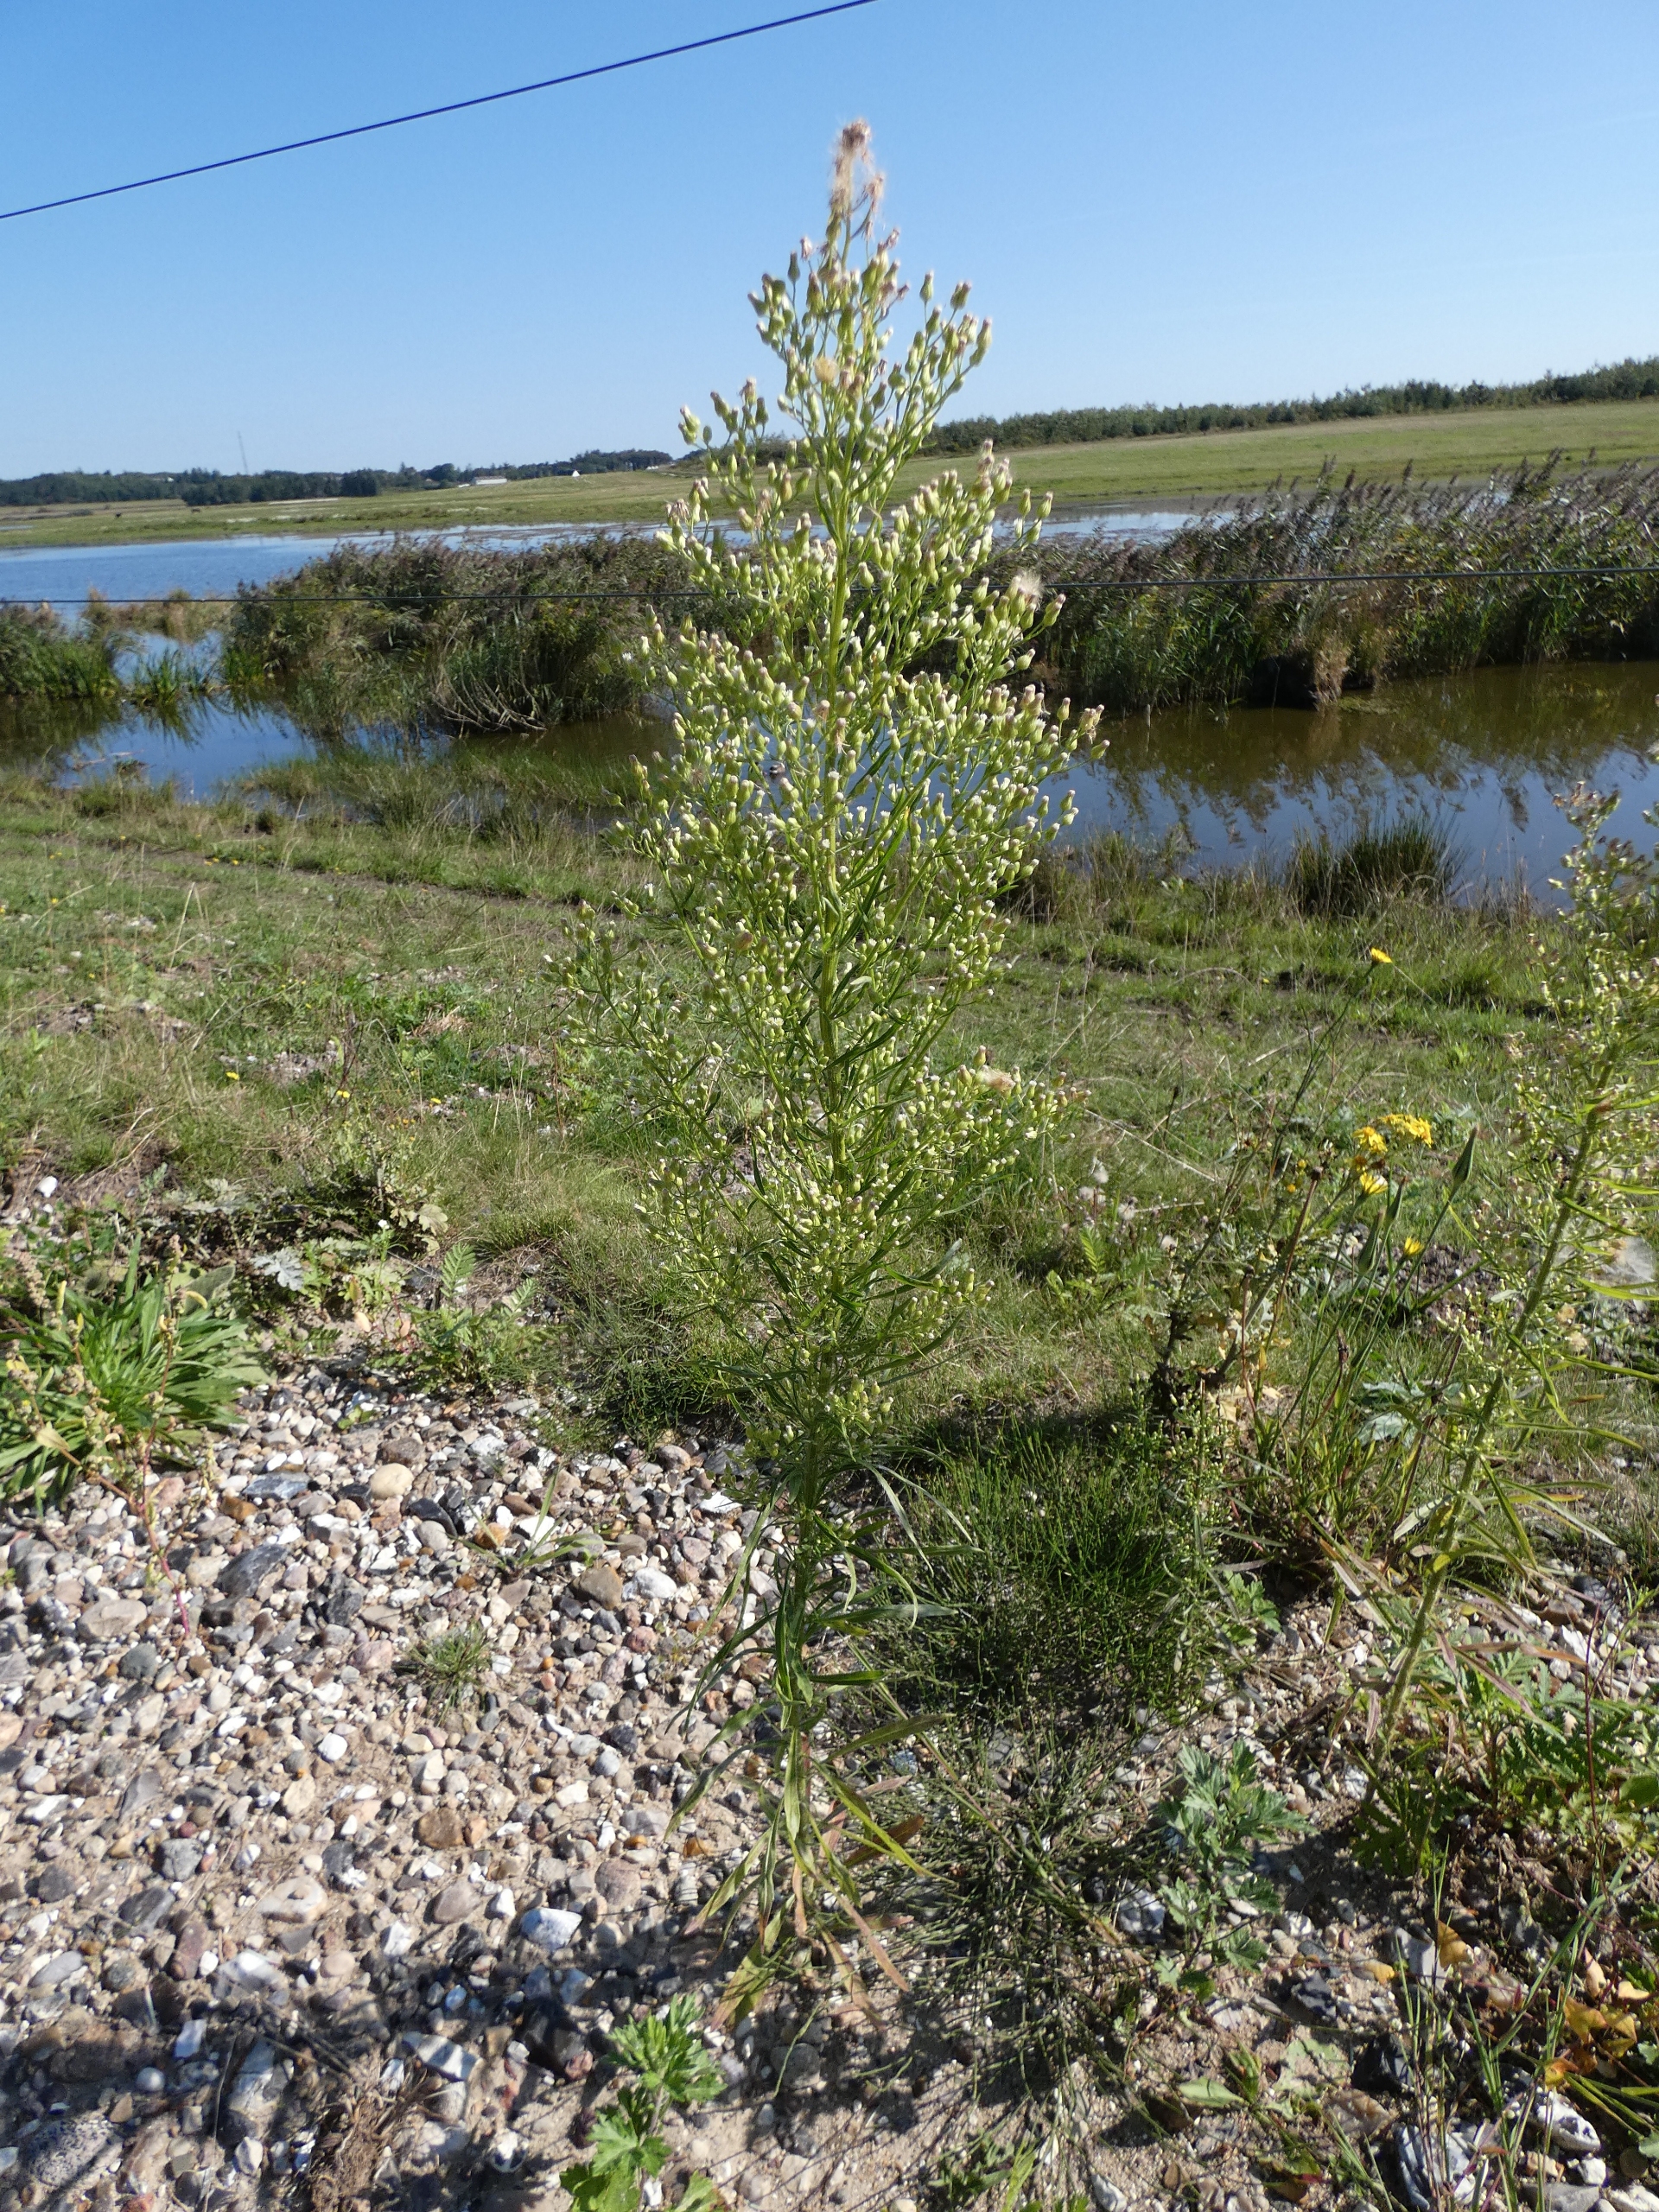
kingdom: Plantae
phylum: Tracheophyta
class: Magnoliopsida
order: Asterales
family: Asteraceae
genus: Erigeron
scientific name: Erigeron canadensis
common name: Kanadisk bakkestjerne
